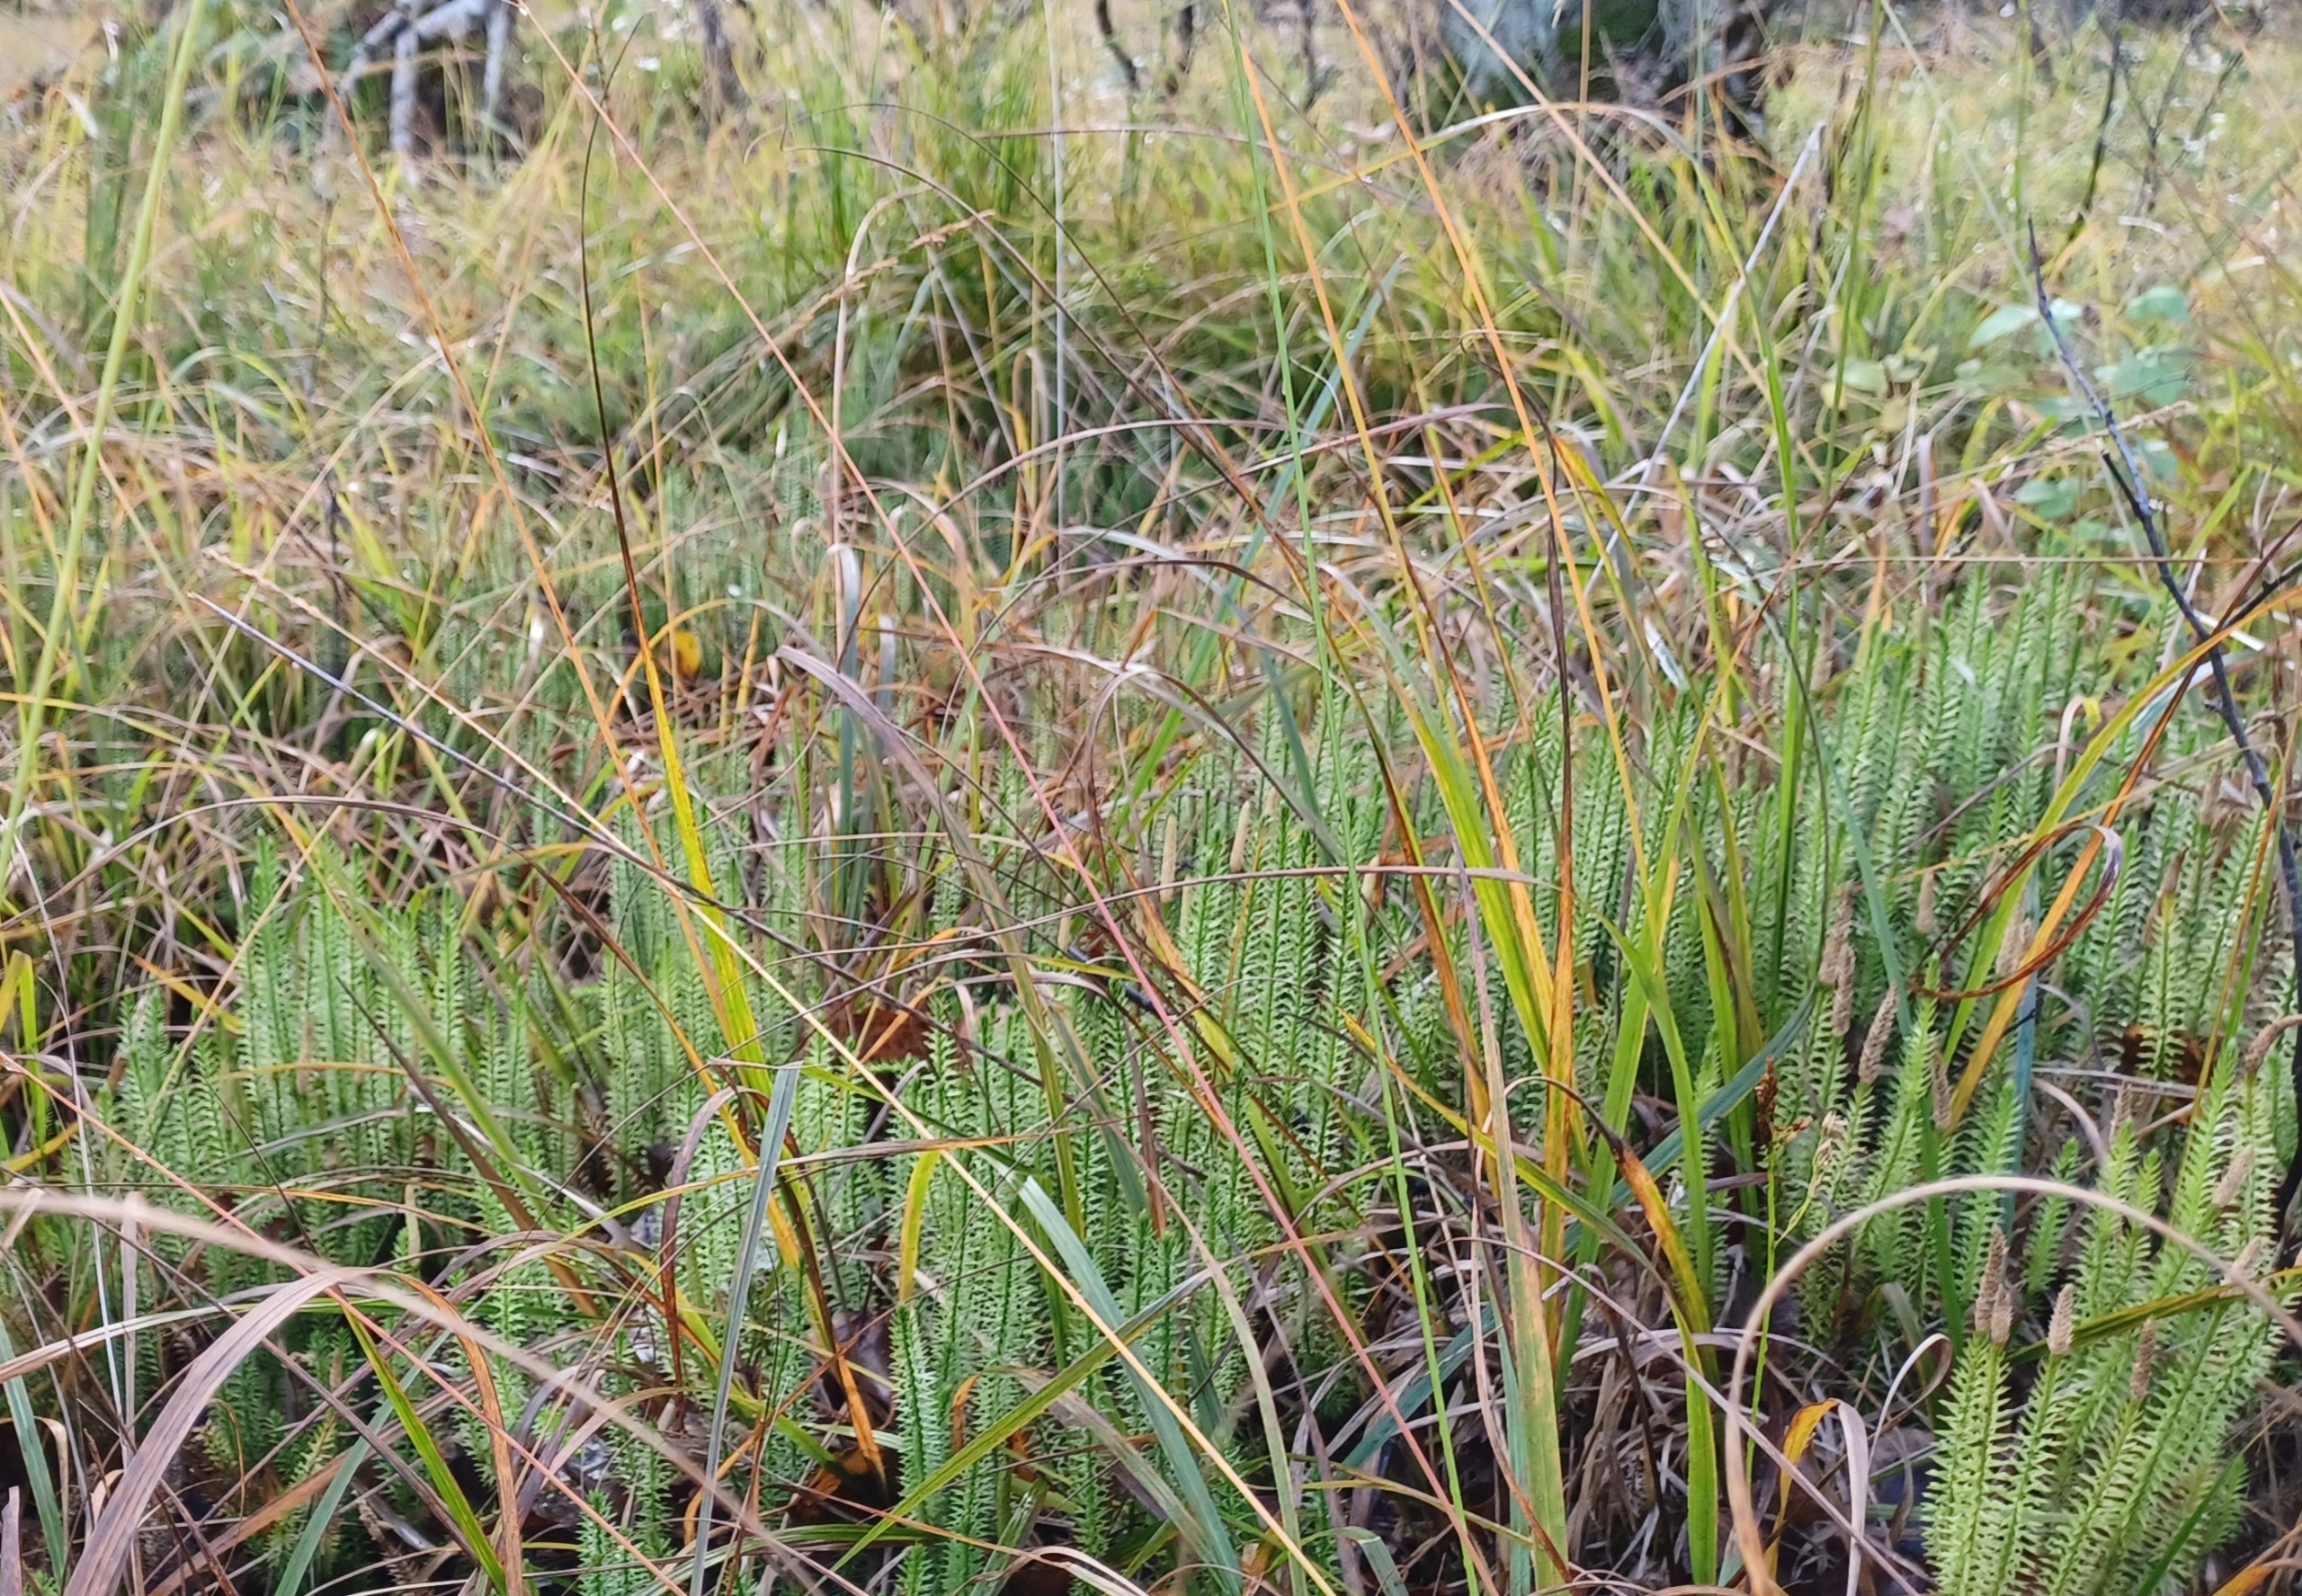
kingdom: Plantae
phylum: Tracheophyta
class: Lycopodiopsida
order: Lycopodiales
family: Lycopodiaceae
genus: Spinulum
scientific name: Spinulum annotinum
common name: Femradet ulvefod
